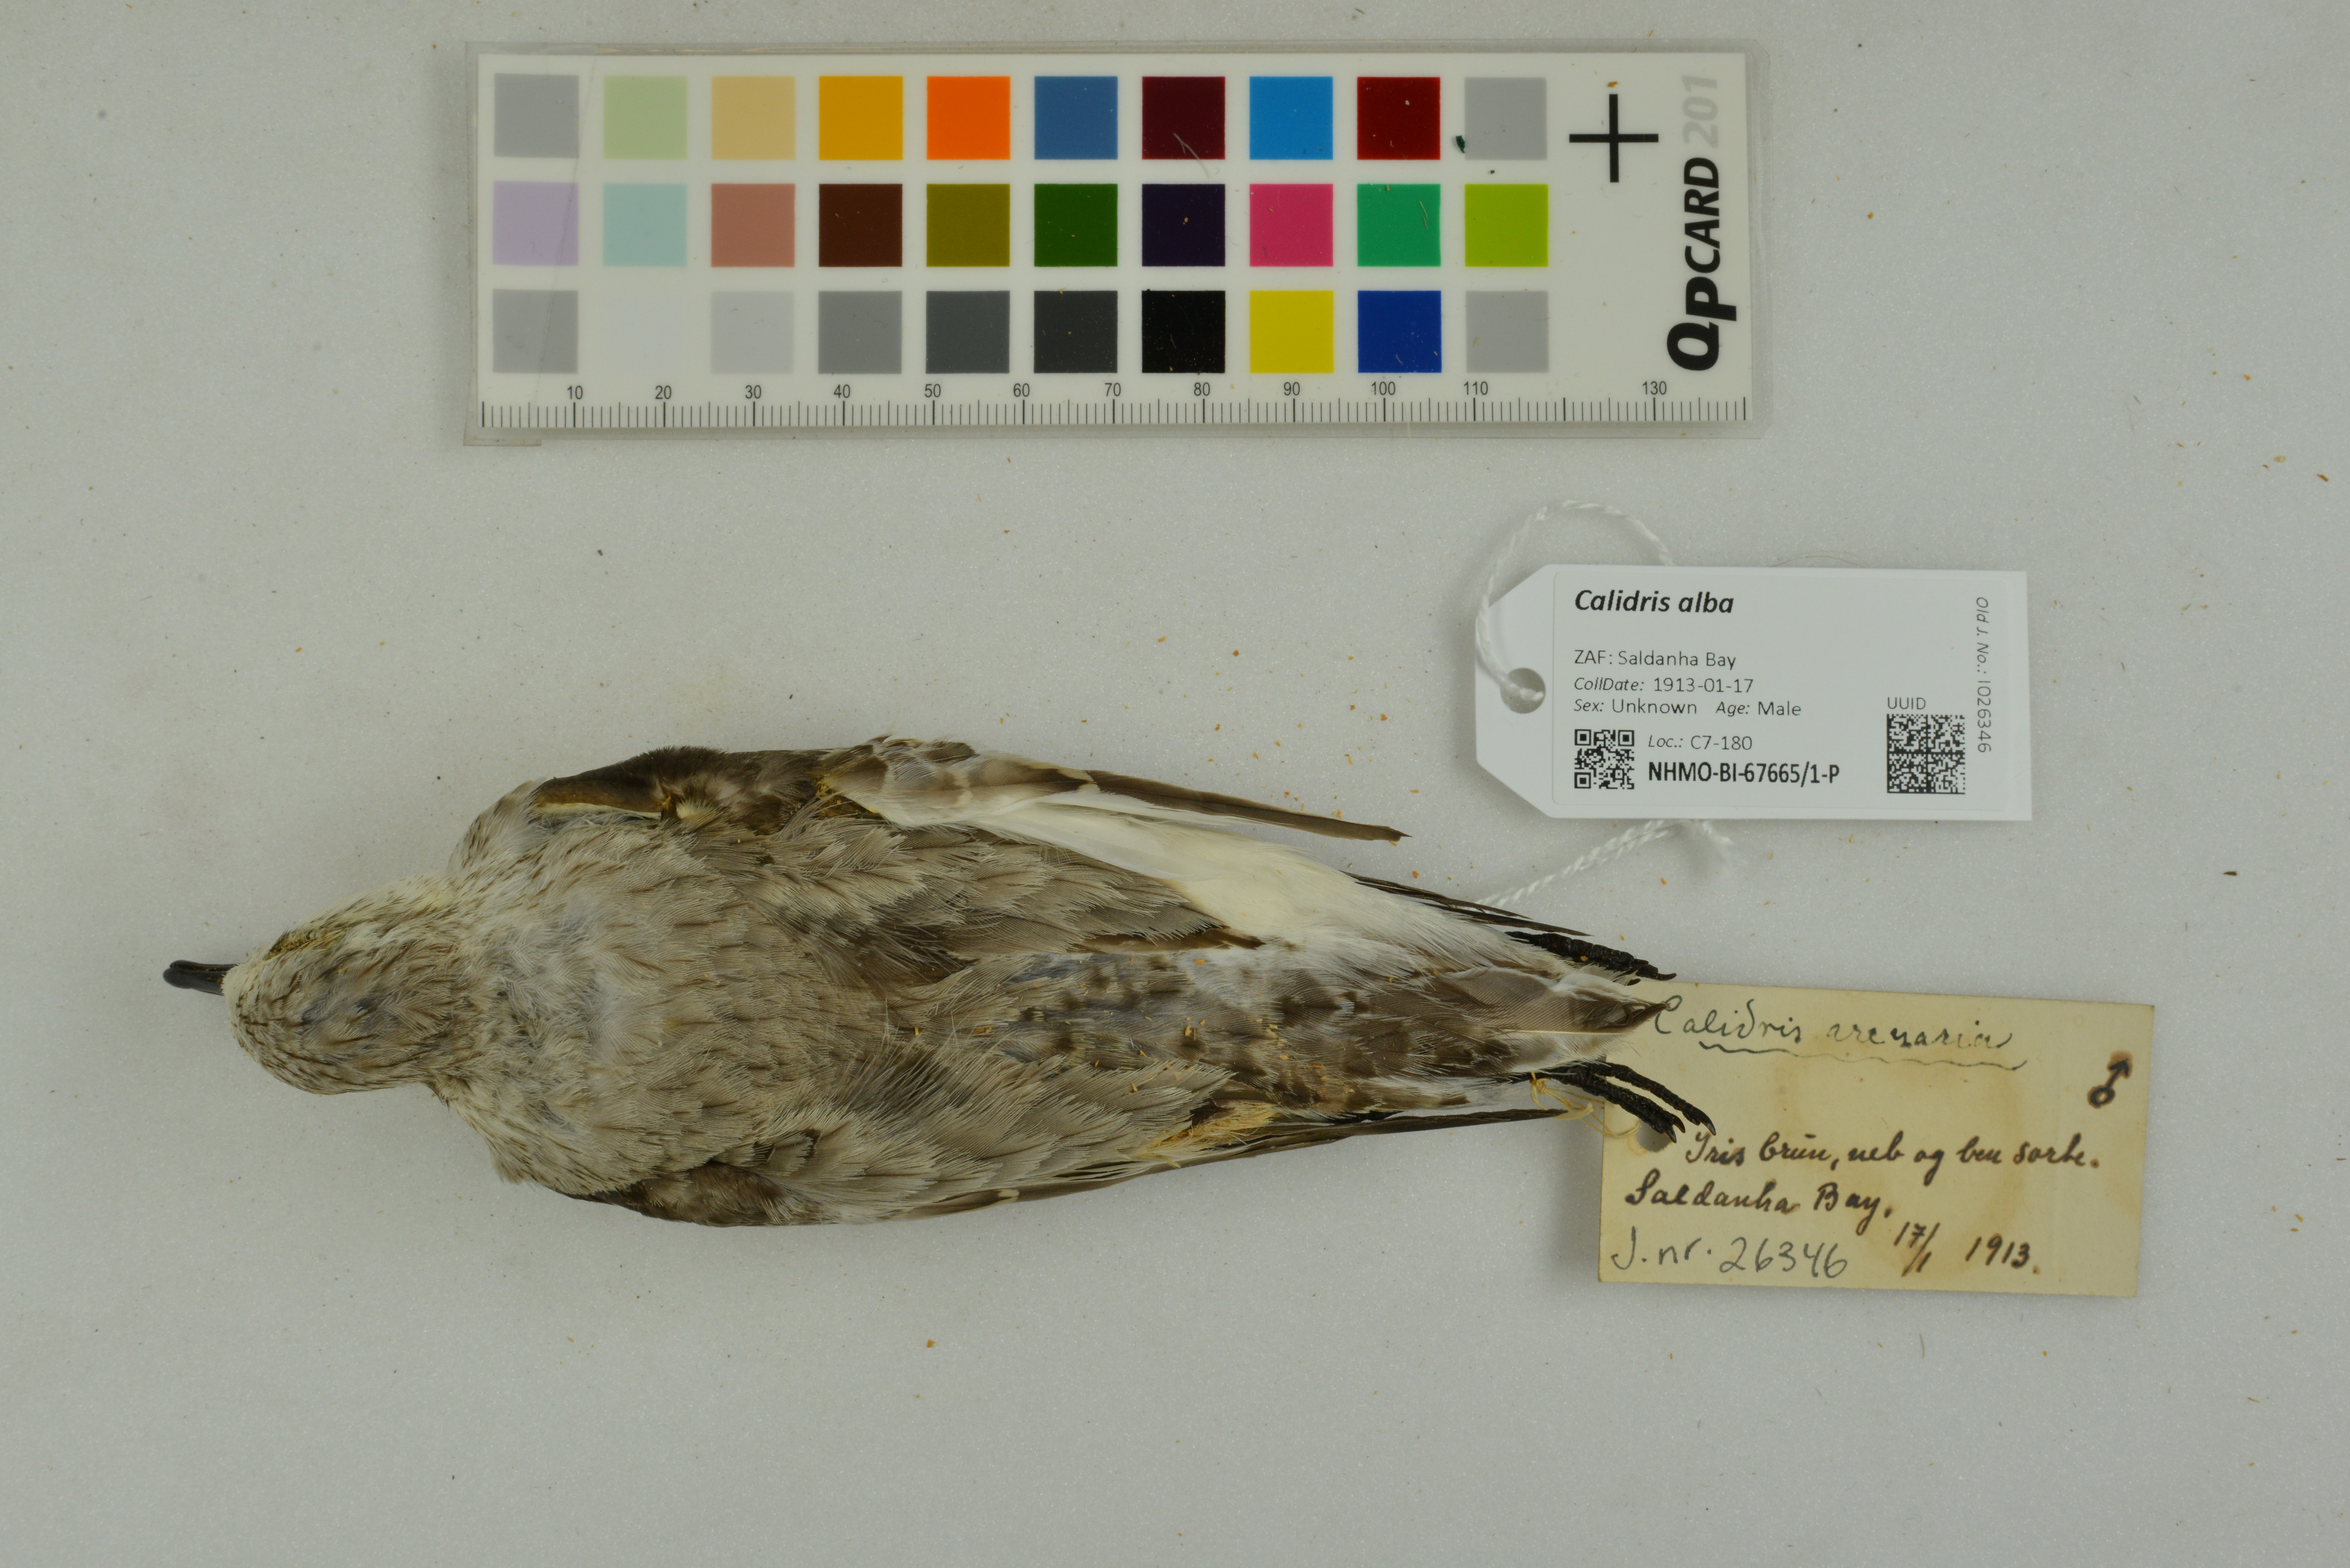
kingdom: Animalia
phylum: Chordata
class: Aves
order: Charadriiformes
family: Scolopacidae
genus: Calidris
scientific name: Calidris alba
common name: Sanderling
